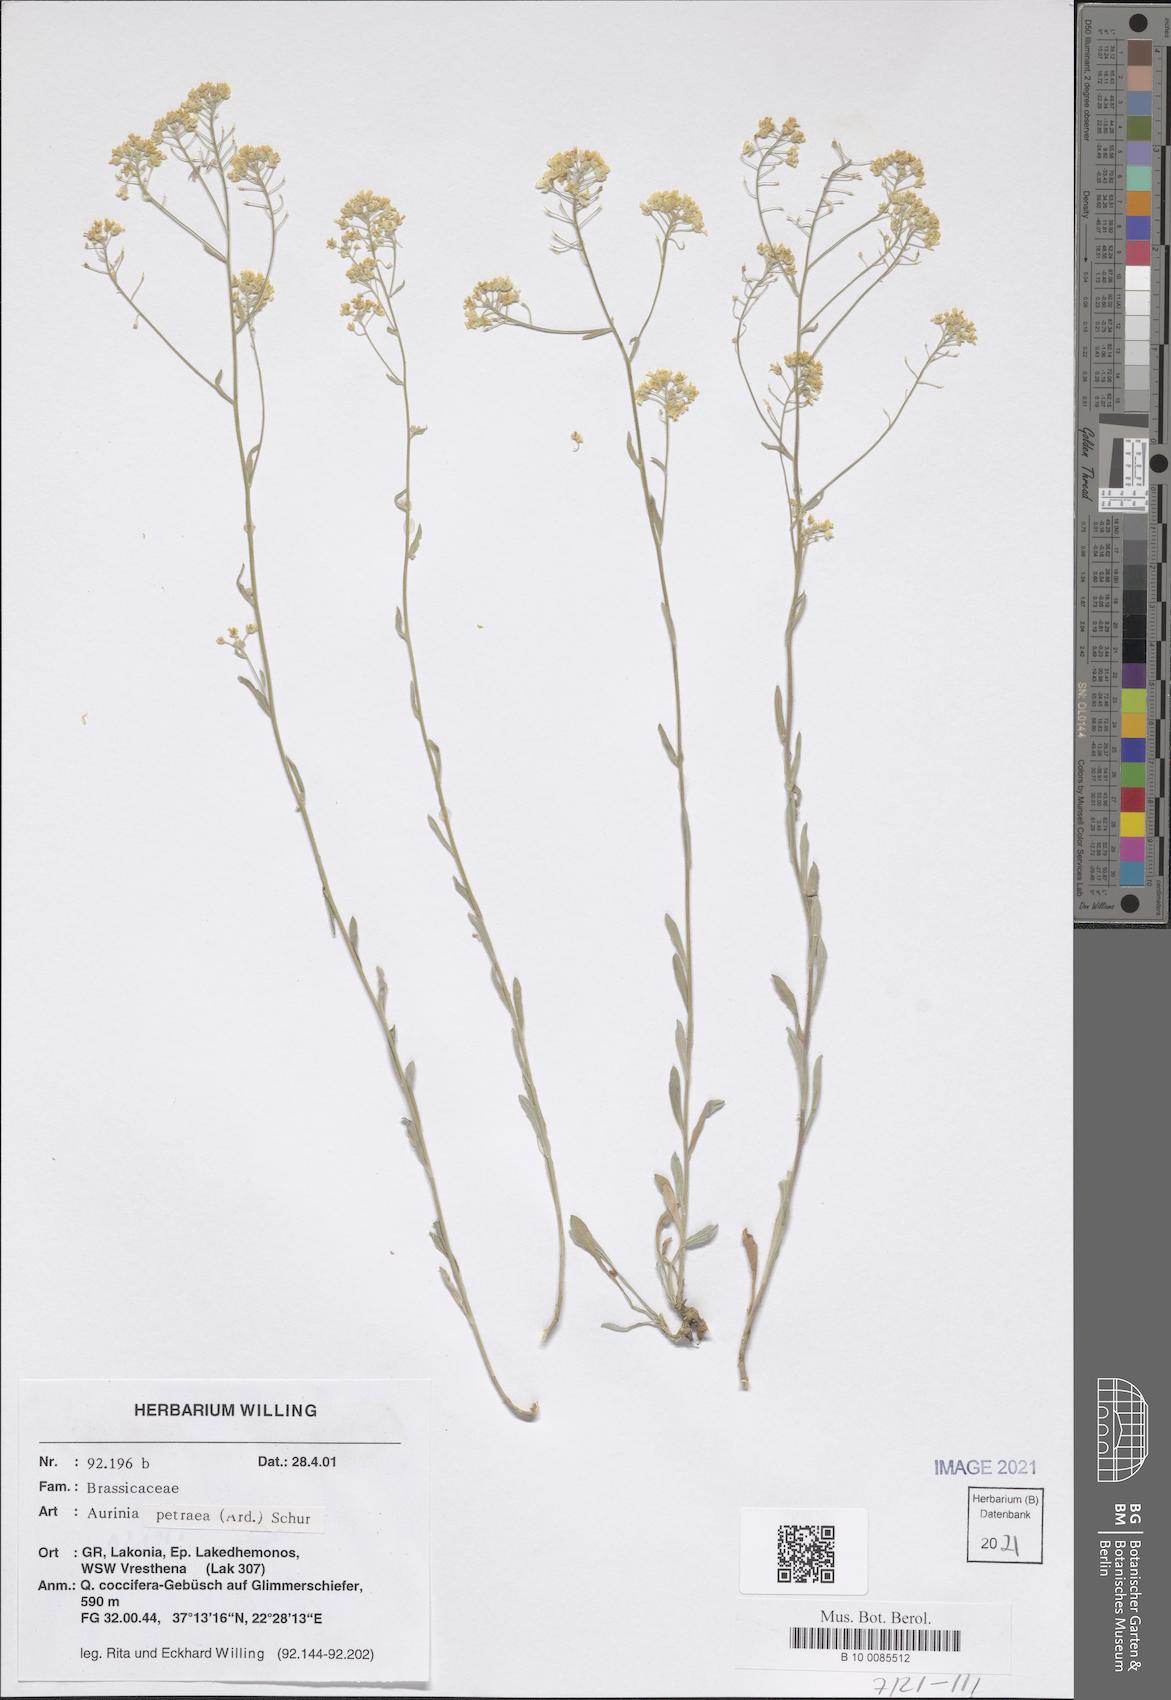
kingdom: Plantae
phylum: Tracheophyta
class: Magnoliopsida
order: Brassicales
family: Brassicaceae
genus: Aurinia
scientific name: Aurinia petraea
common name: Goldentuft
